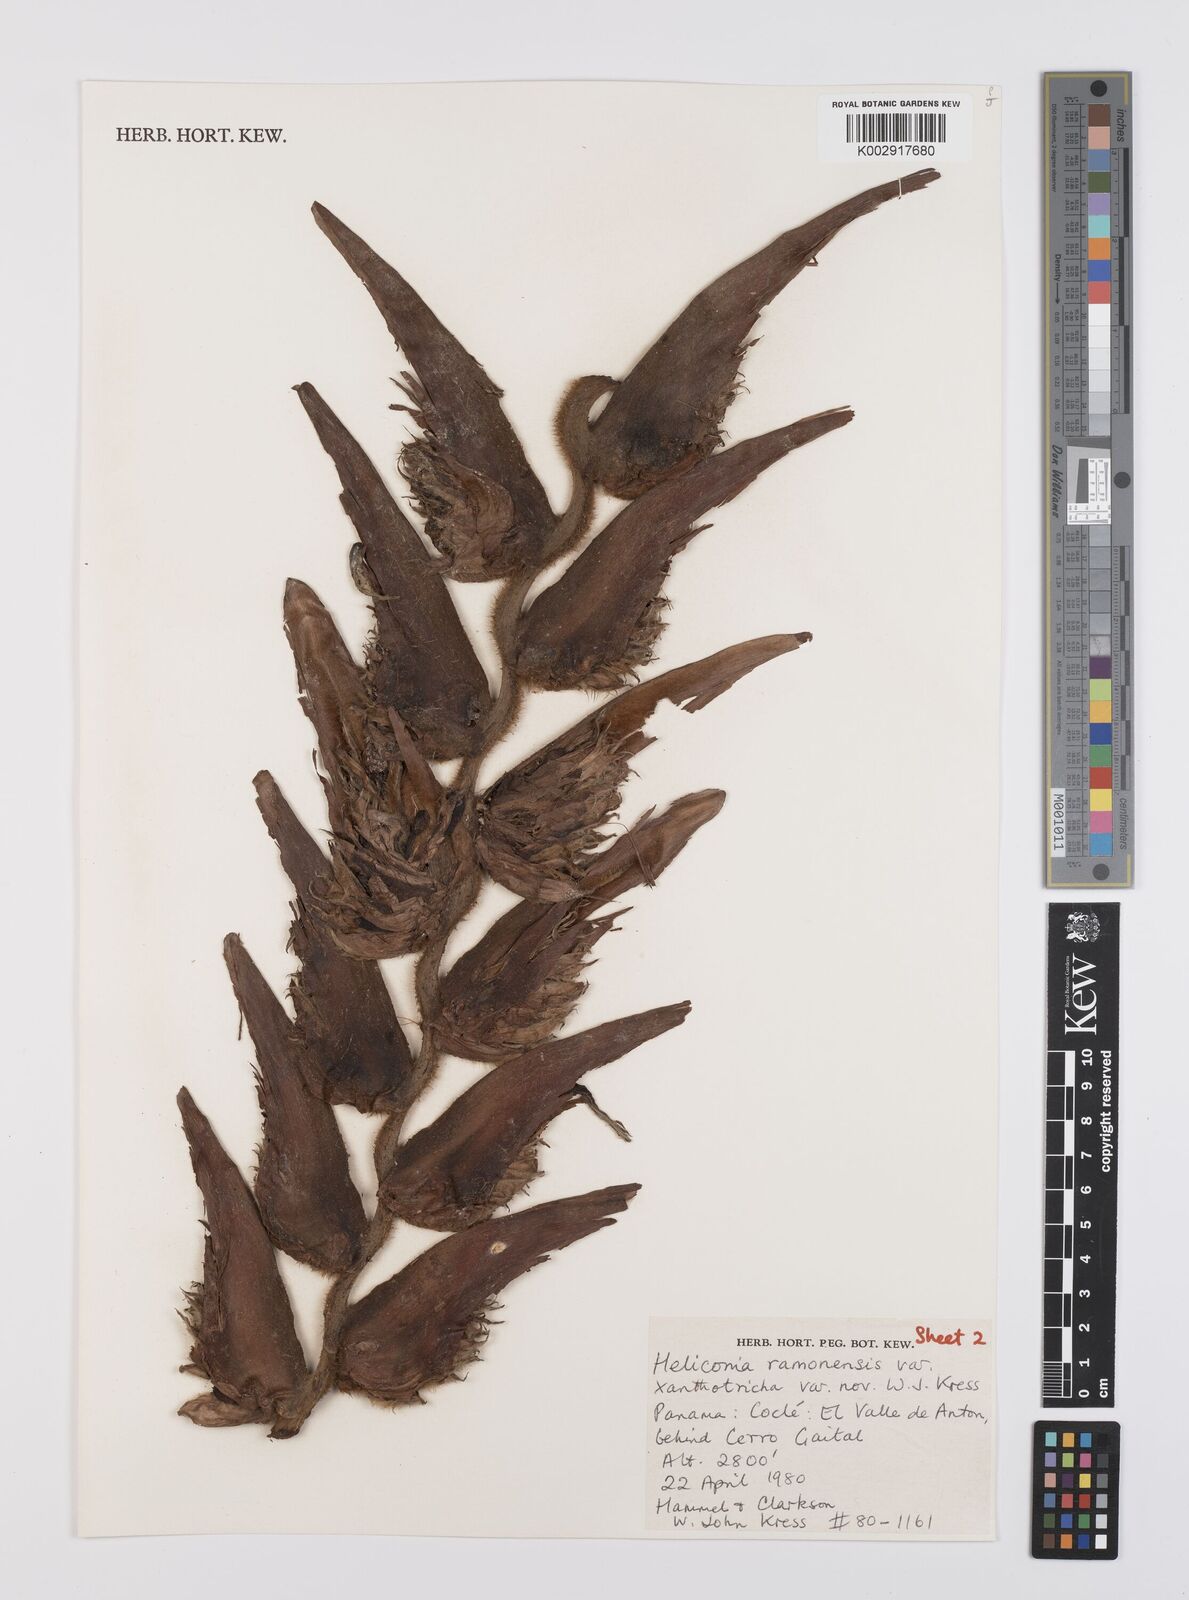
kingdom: Plantae
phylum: Tracheophyta
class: Liliopsida
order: Zingiberales
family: Heliconiaceae
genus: Heliconia
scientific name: Heliconia ramonensis
